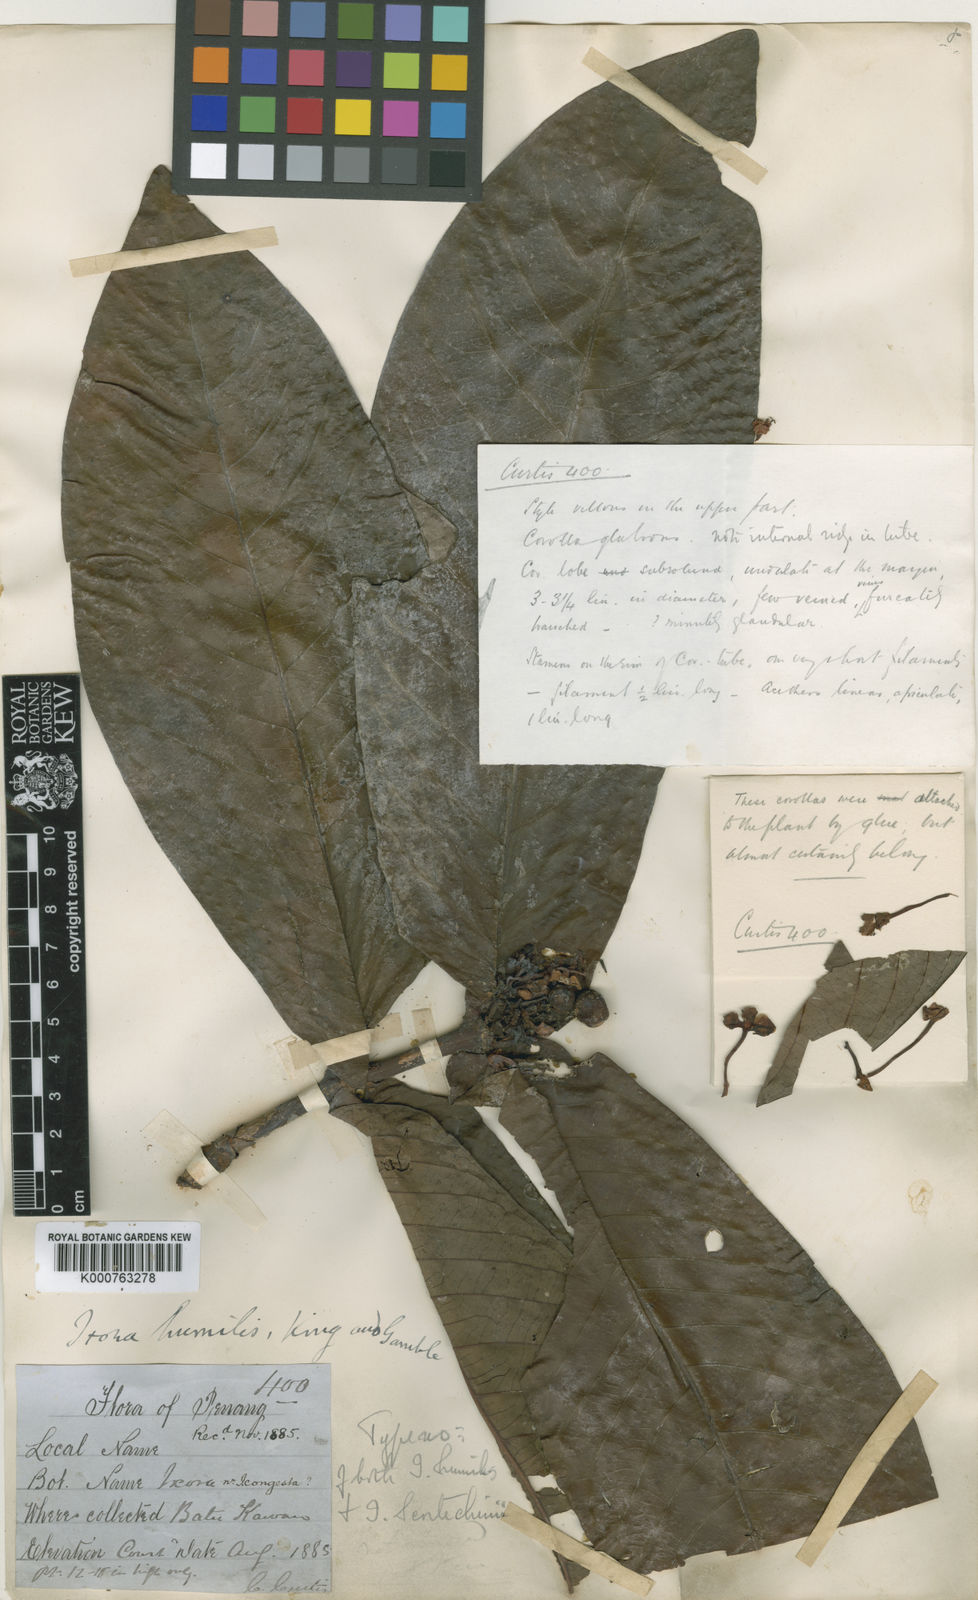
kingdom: Plantae
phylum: Tracheophyta
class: Magnoliopsida
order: Gentianales
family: Rubiaceae
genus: Ixora
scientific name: Ixora scortechinii
